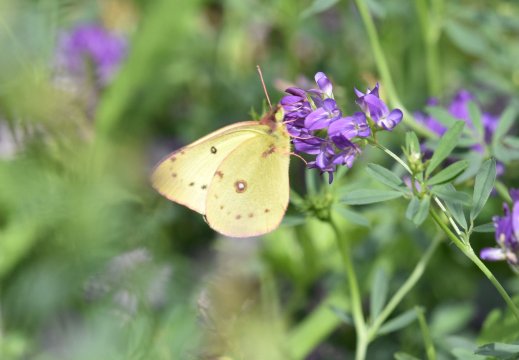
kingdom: Animalia
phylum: Arthropoda
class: Insecta
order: Lepidoptera
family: Pieridae
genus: Colias
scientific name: Colias philodice
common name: Clouded Sulphur
